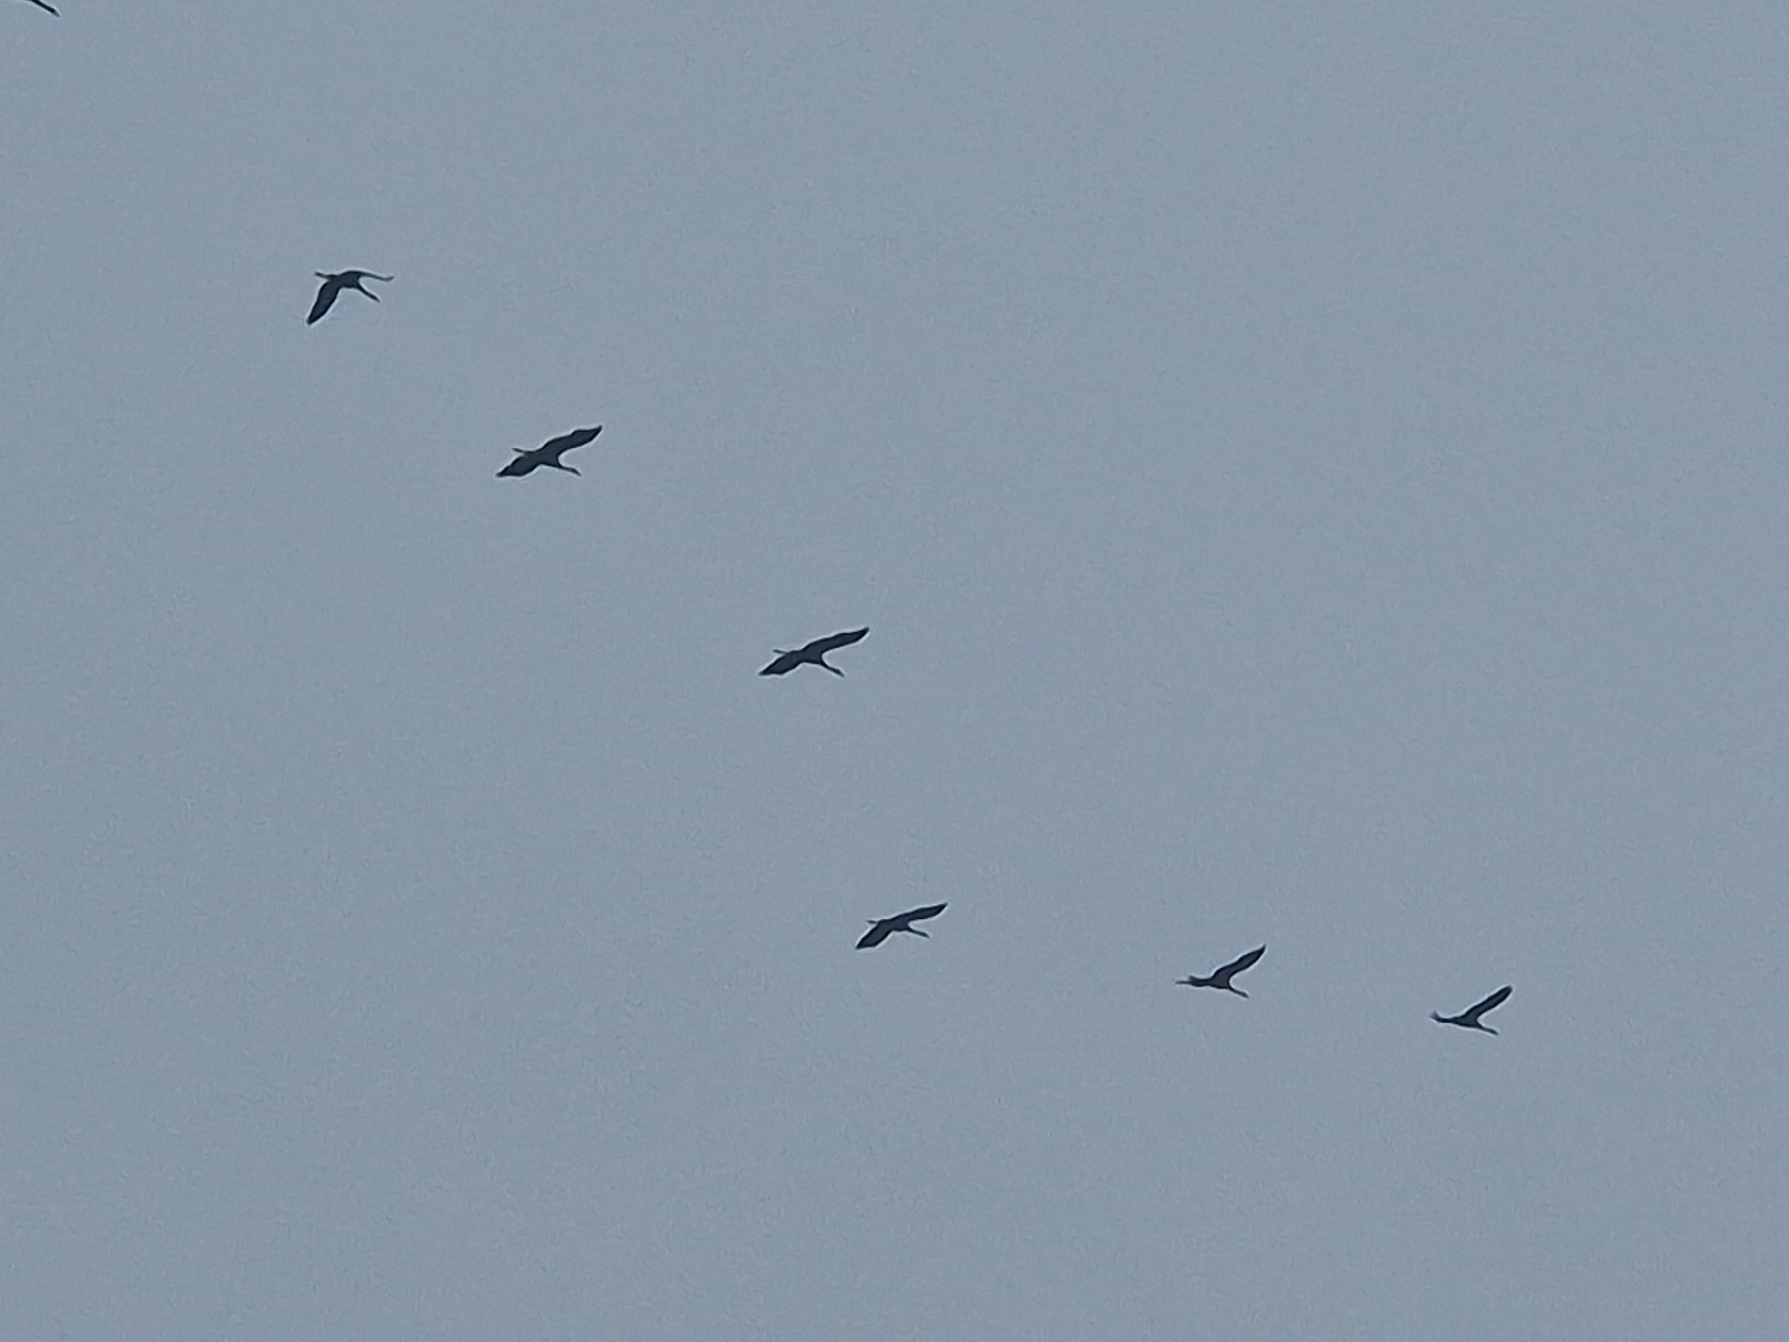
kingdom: Animalia
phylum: Chordata
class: Aves
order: Gruiformes
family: Gruidae
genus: Grus
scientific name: Grus grus
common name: Trane
